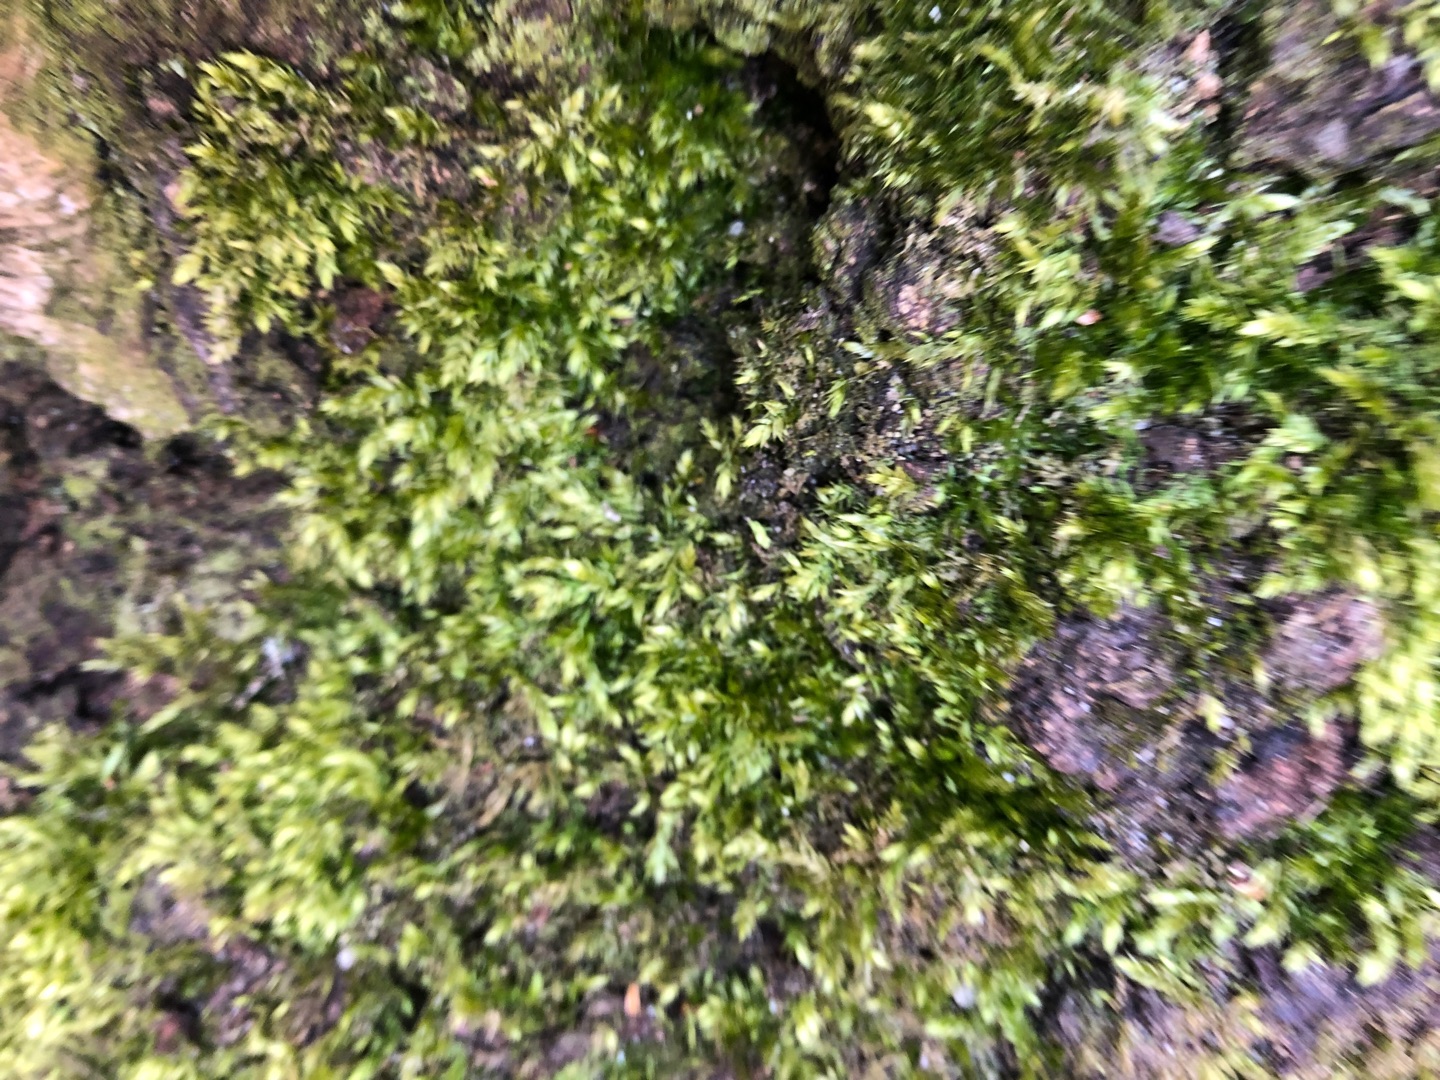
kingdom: Plantae
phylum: Bryophyta
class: Bryopsida
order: Hypnales
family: Brachytheciaceae
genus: Brachythecium
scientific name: Brachythecium rutabulum
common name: Almindelig kortkapsel
